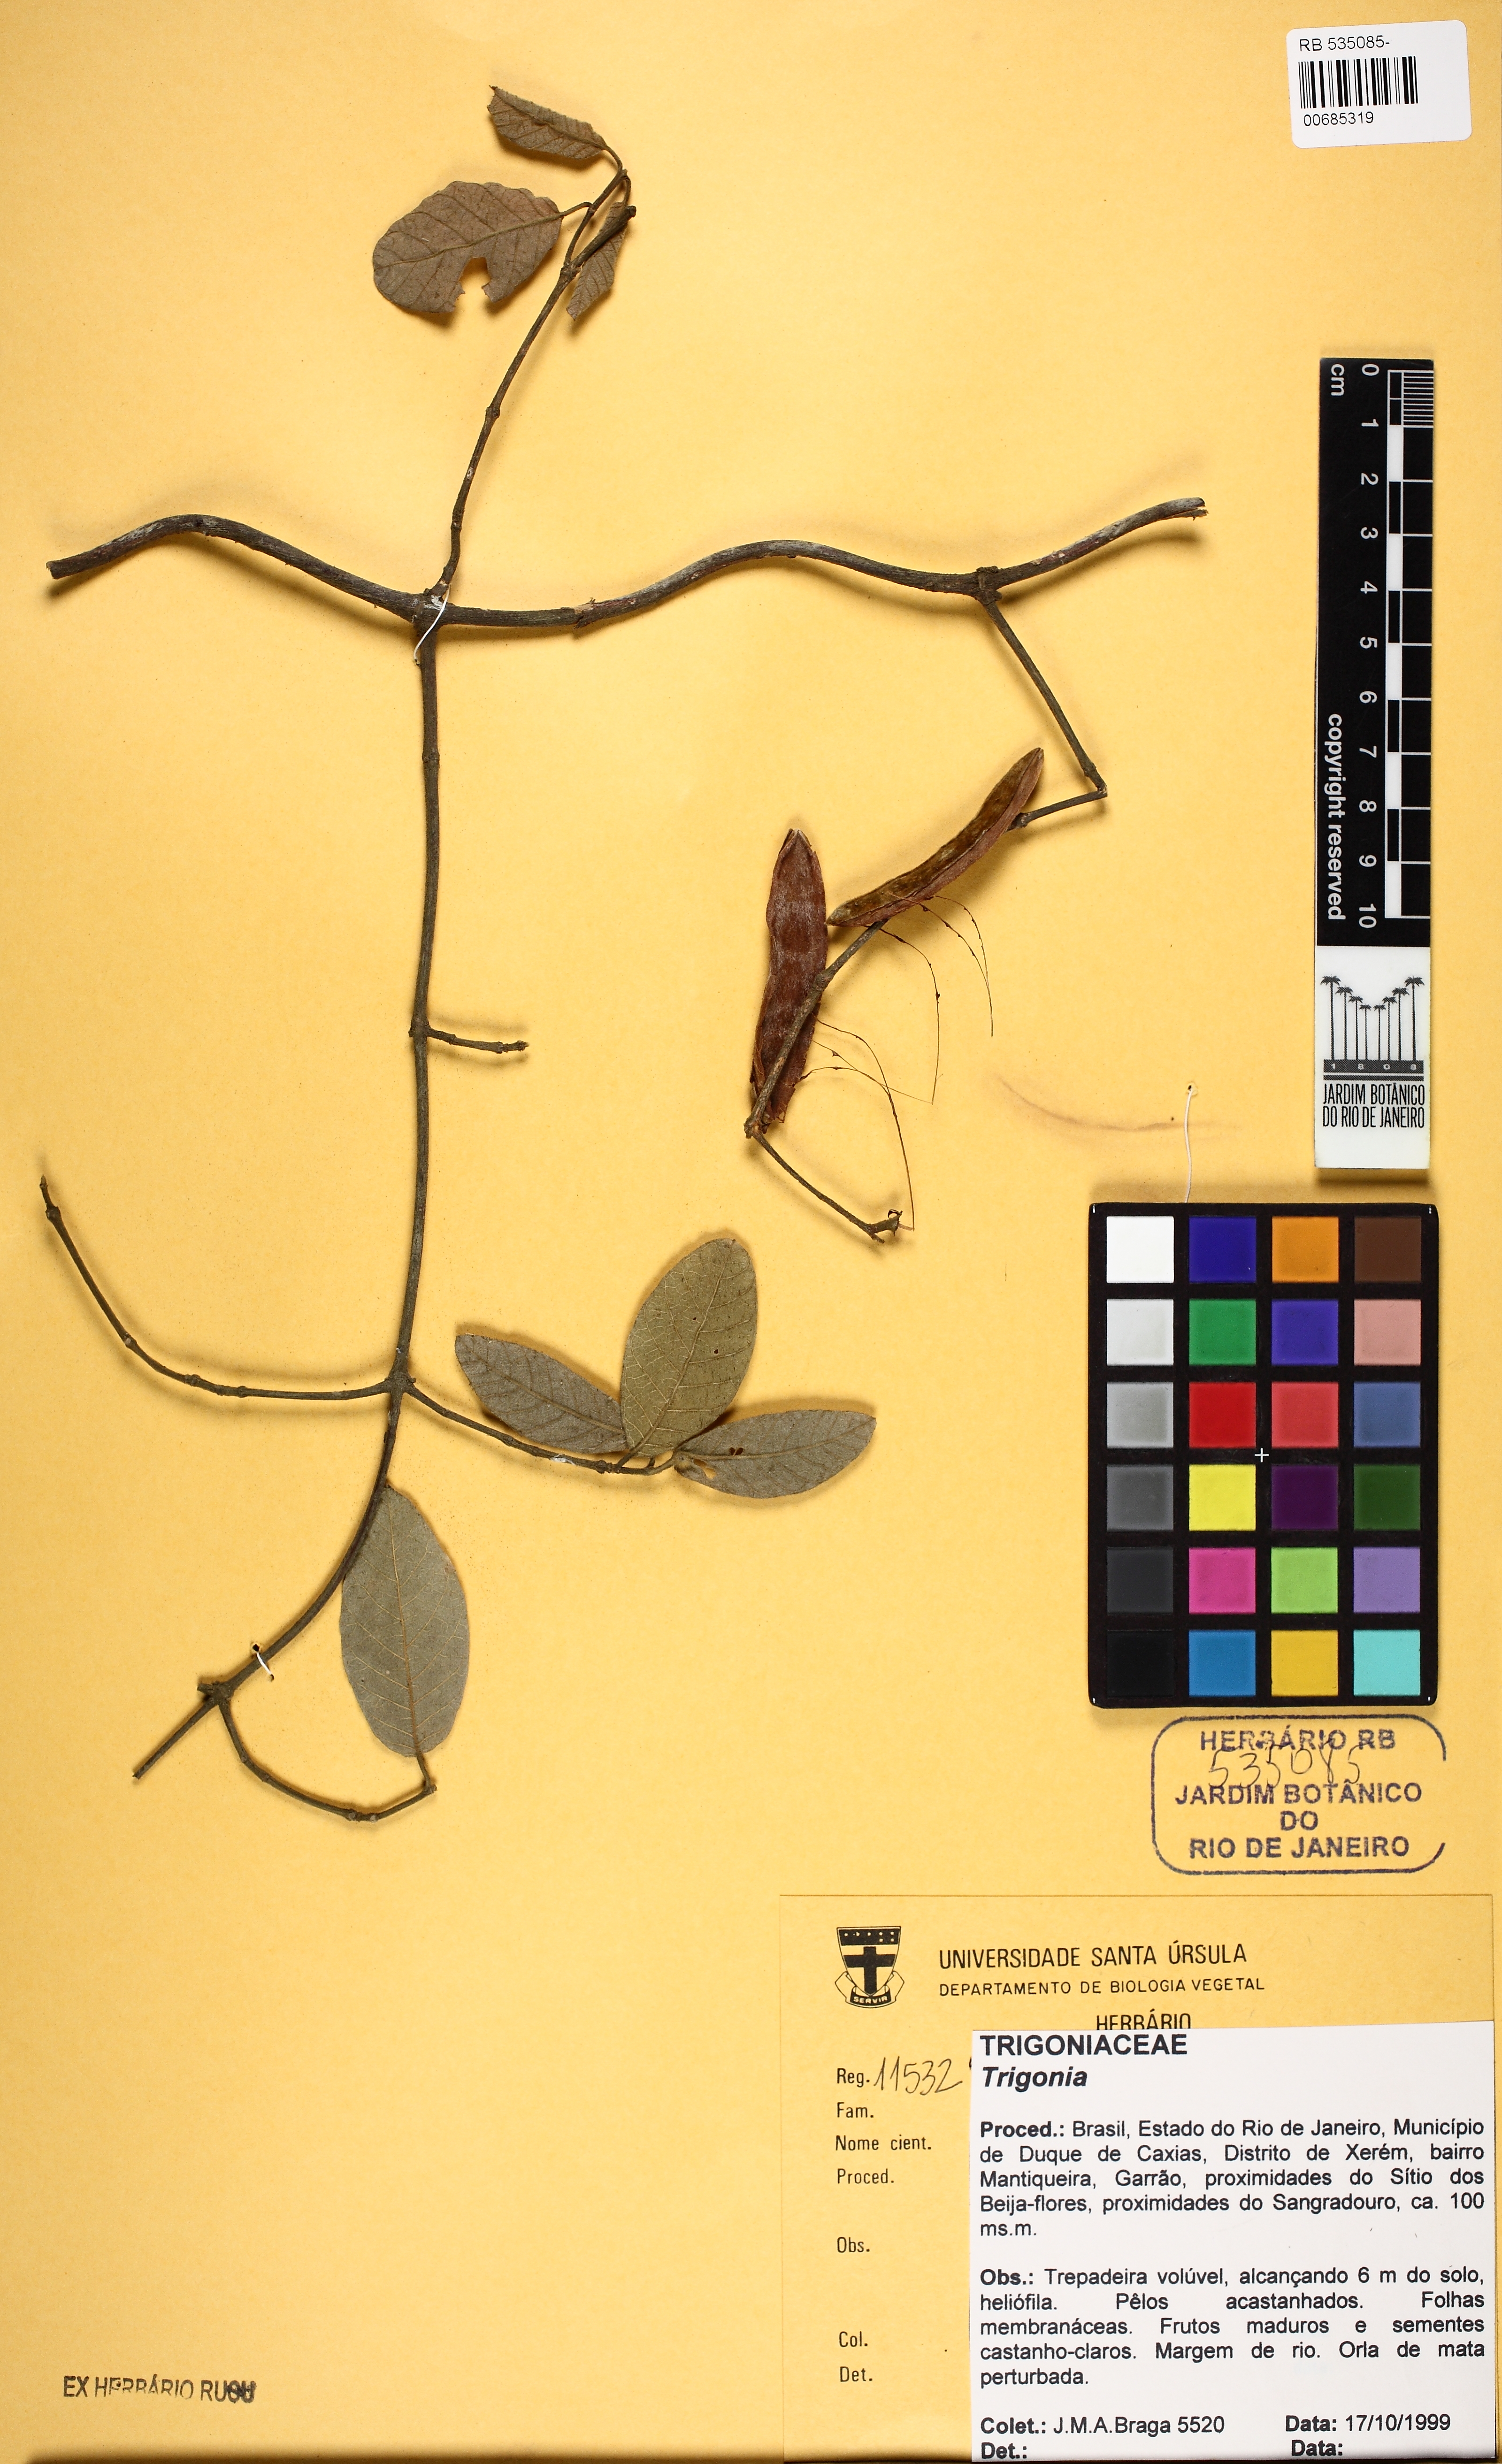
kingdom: Plantae
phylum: Tracheophyta
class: Magnoliopsida
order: Malpighiales
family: Trigoniaceae
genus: Trigonia
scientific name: Trigonia
